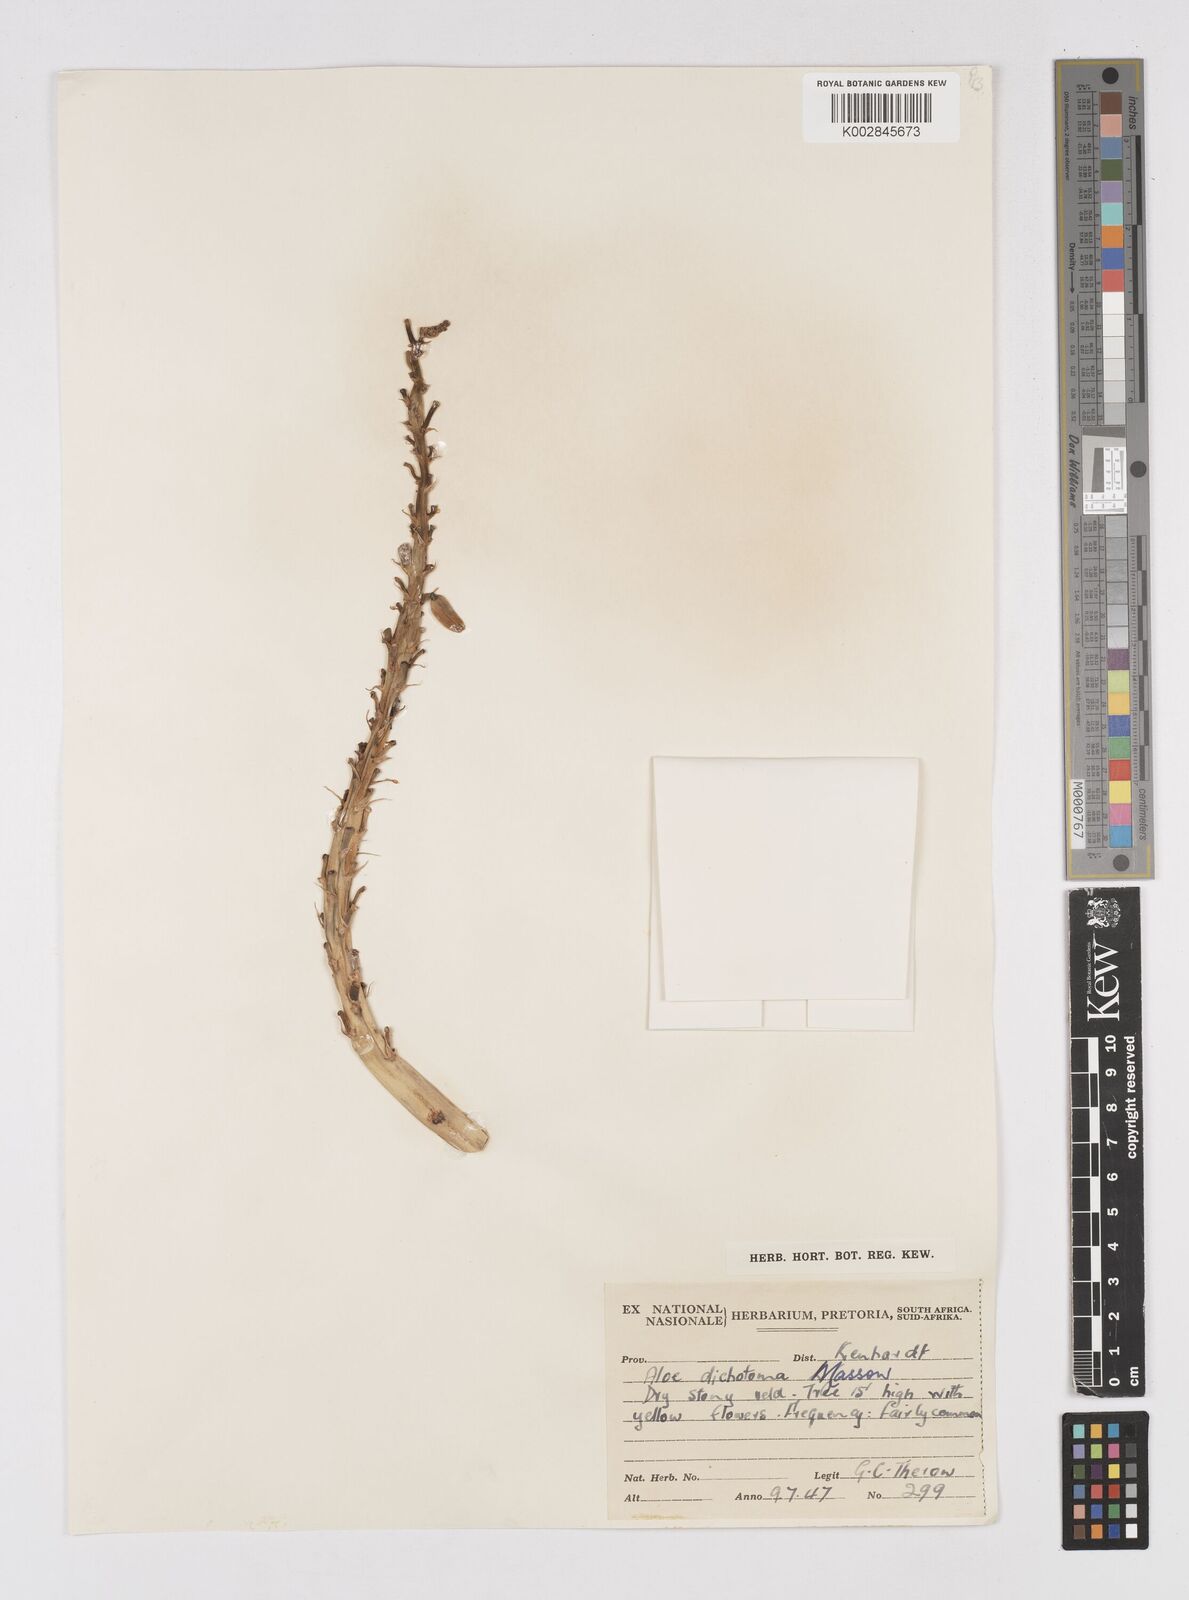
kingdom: Plantae
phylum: Tracheophyta
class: Liliopsida
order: Asparagales
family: Asphodelaceae
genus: Aloidendron
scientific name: Aloidendron dichotomum
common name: Quiver tree
